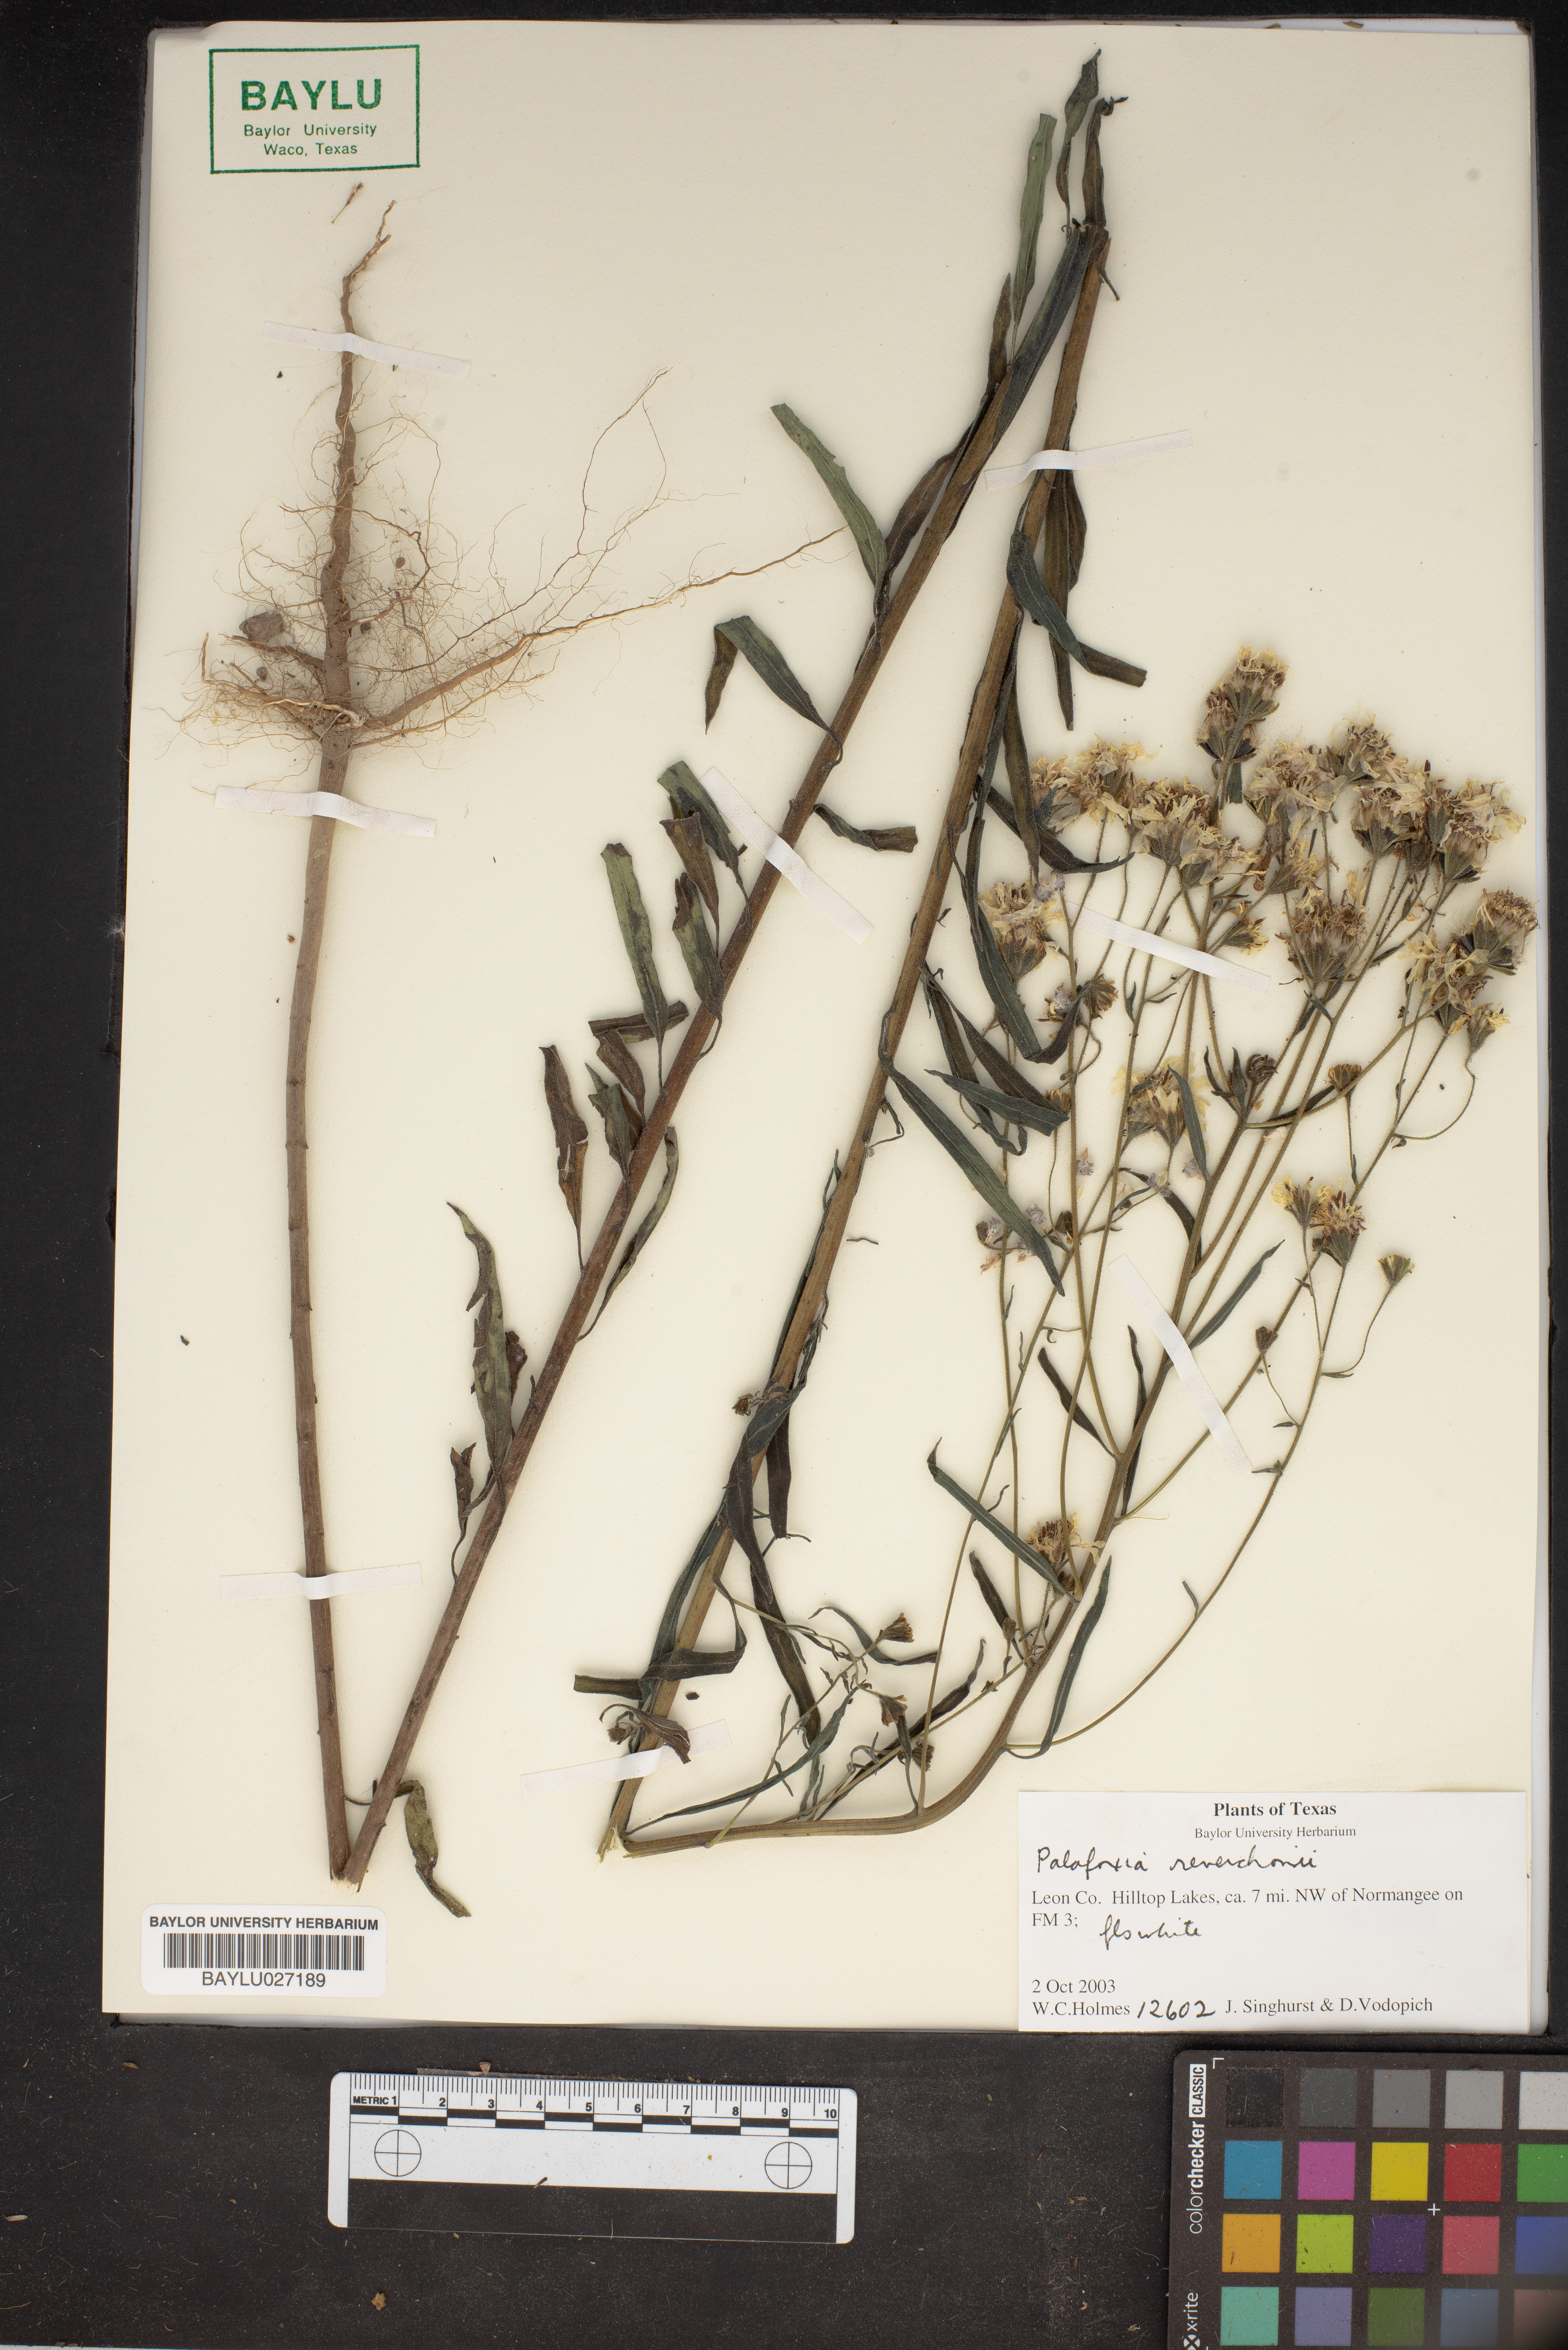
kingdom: Plantae
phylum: Tracheophyta
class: Magnoliopsida
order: Asterales
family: Asteraceae
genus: Palafoxia
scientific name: Palafoxia reverchonii
